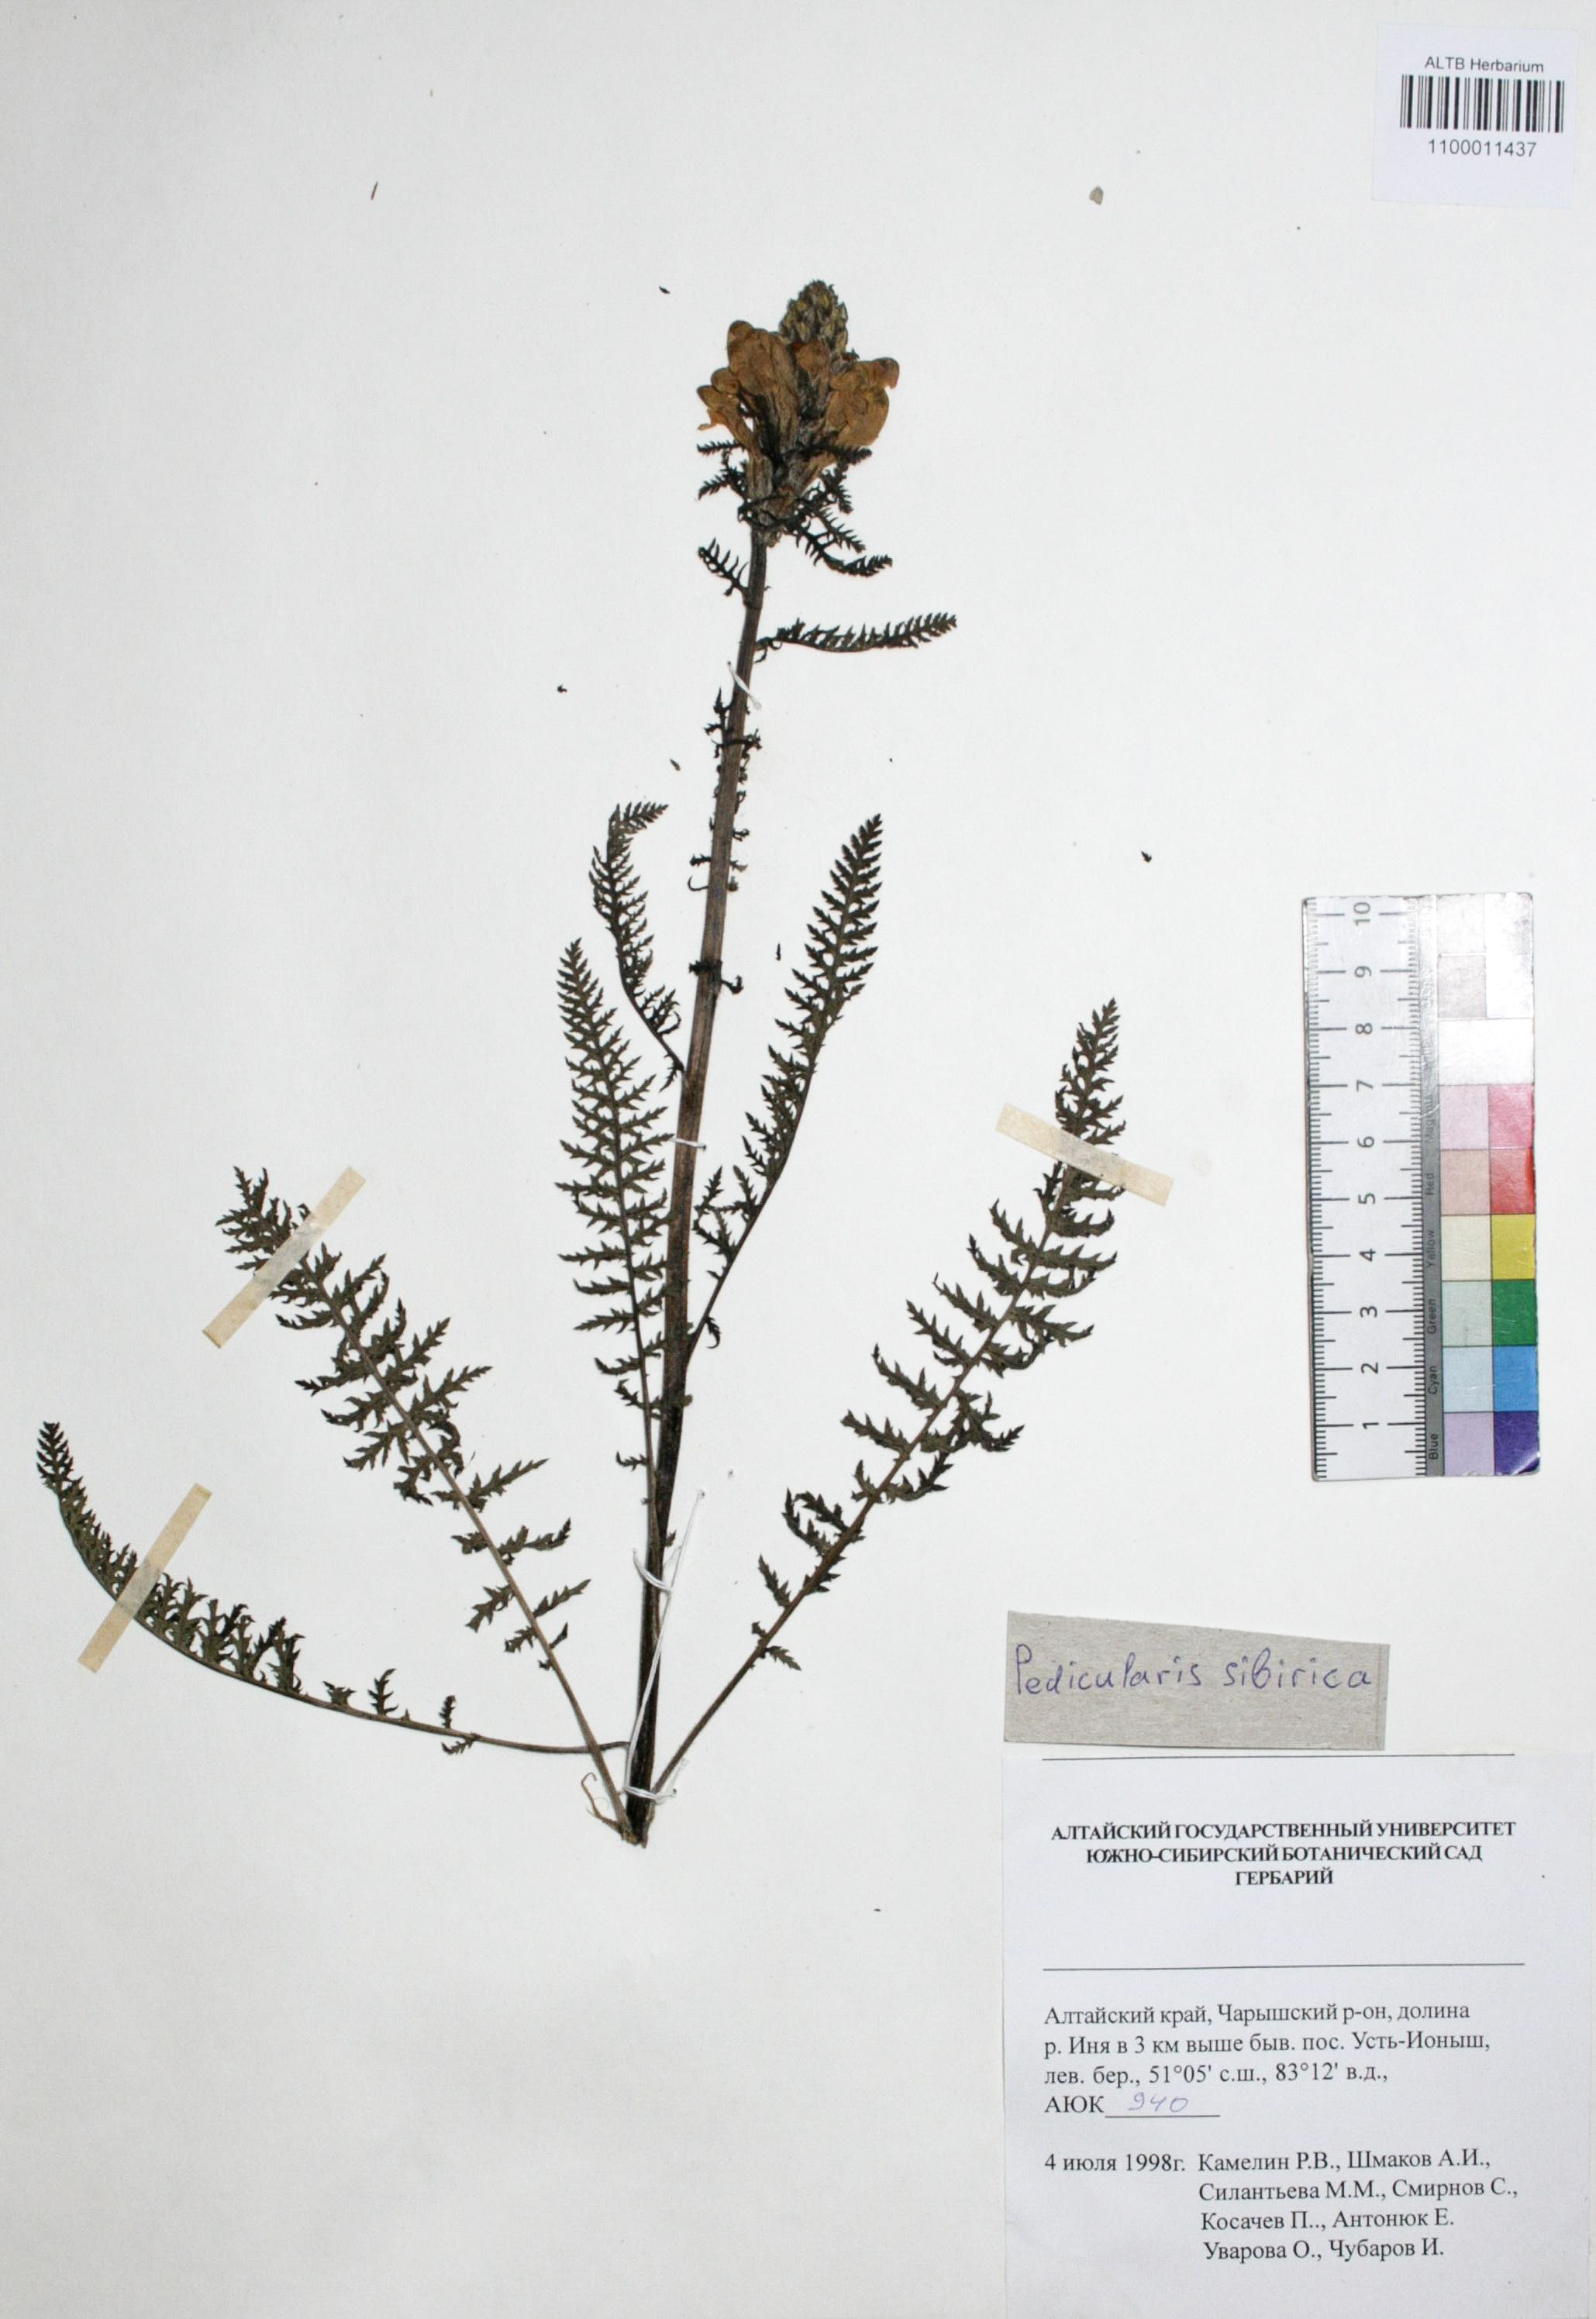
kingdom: Plantae
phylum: Tracheophyta
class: Magnoliopsida
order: Lamiales
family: Orobanchaceae
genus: Pedicularis
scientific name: Pedicularis sibirica
